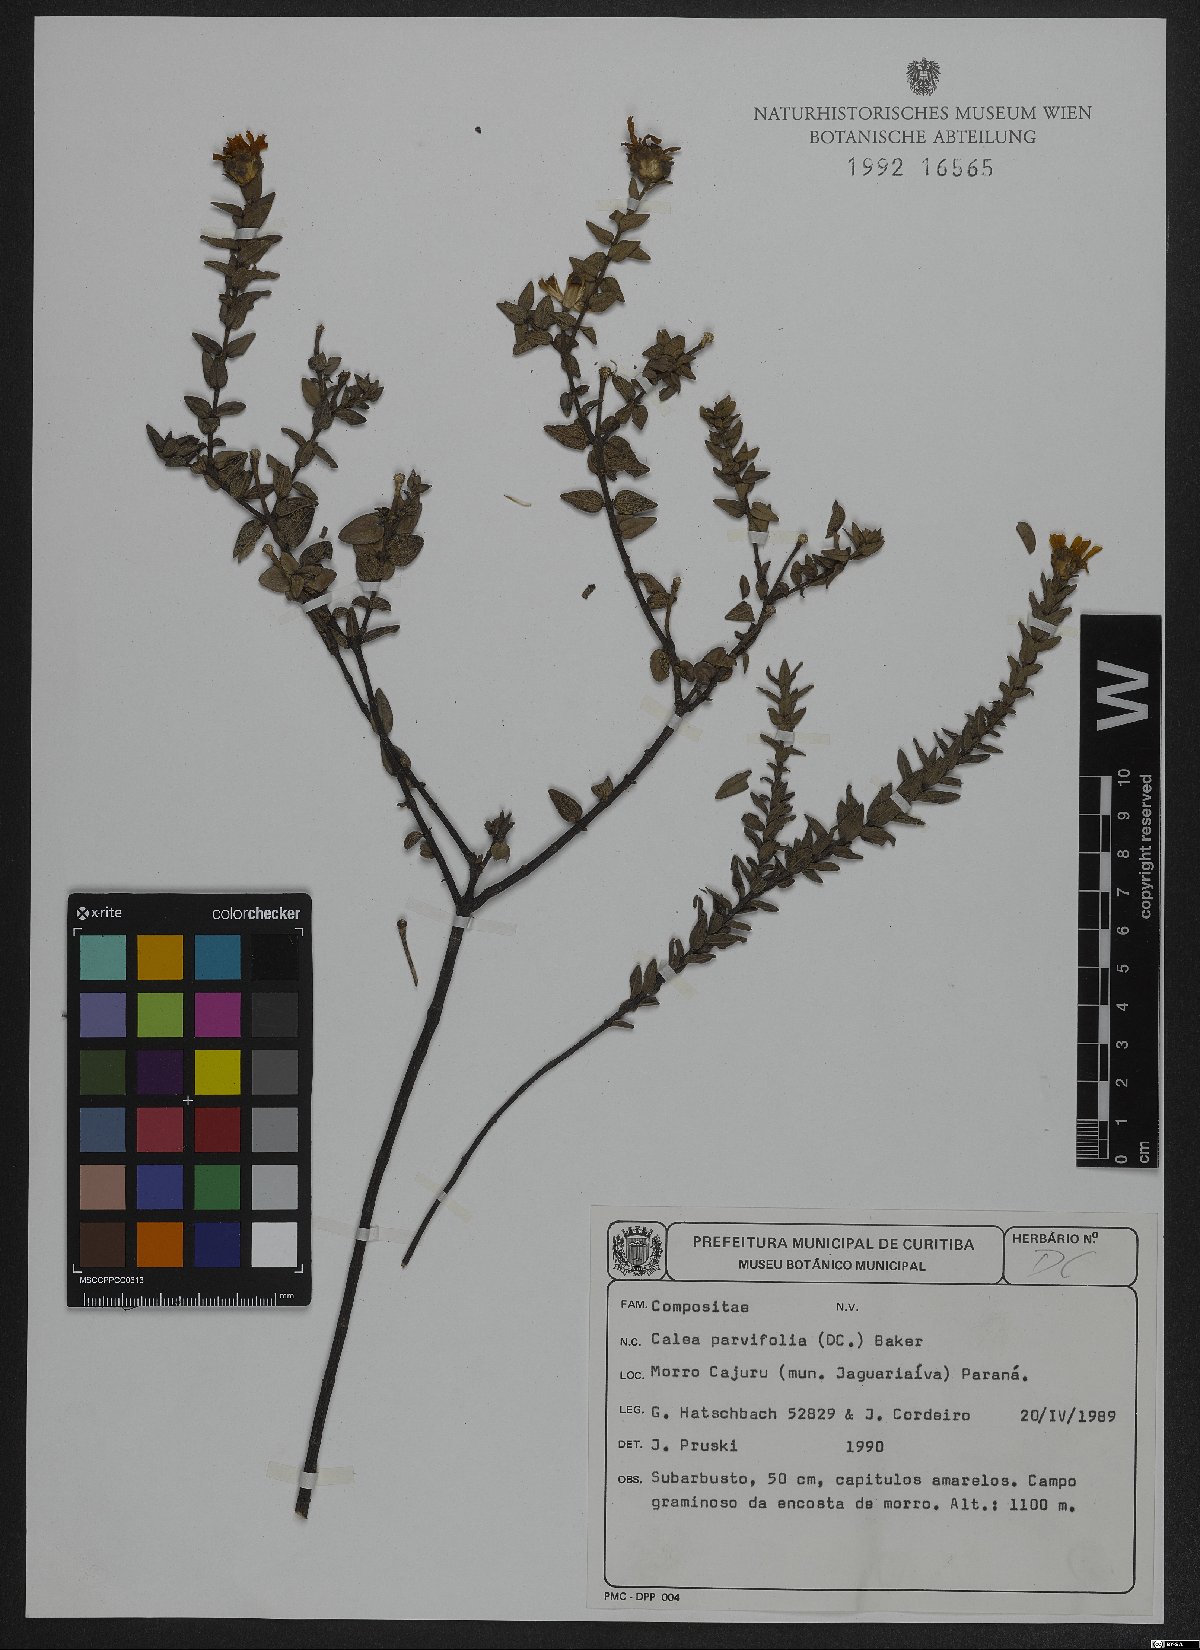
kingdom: Plantae
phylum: Tracheophyta
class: Magnoliopsida
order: Asterales
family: Asteraceae
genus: Calea
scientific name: Calea parvifolia
